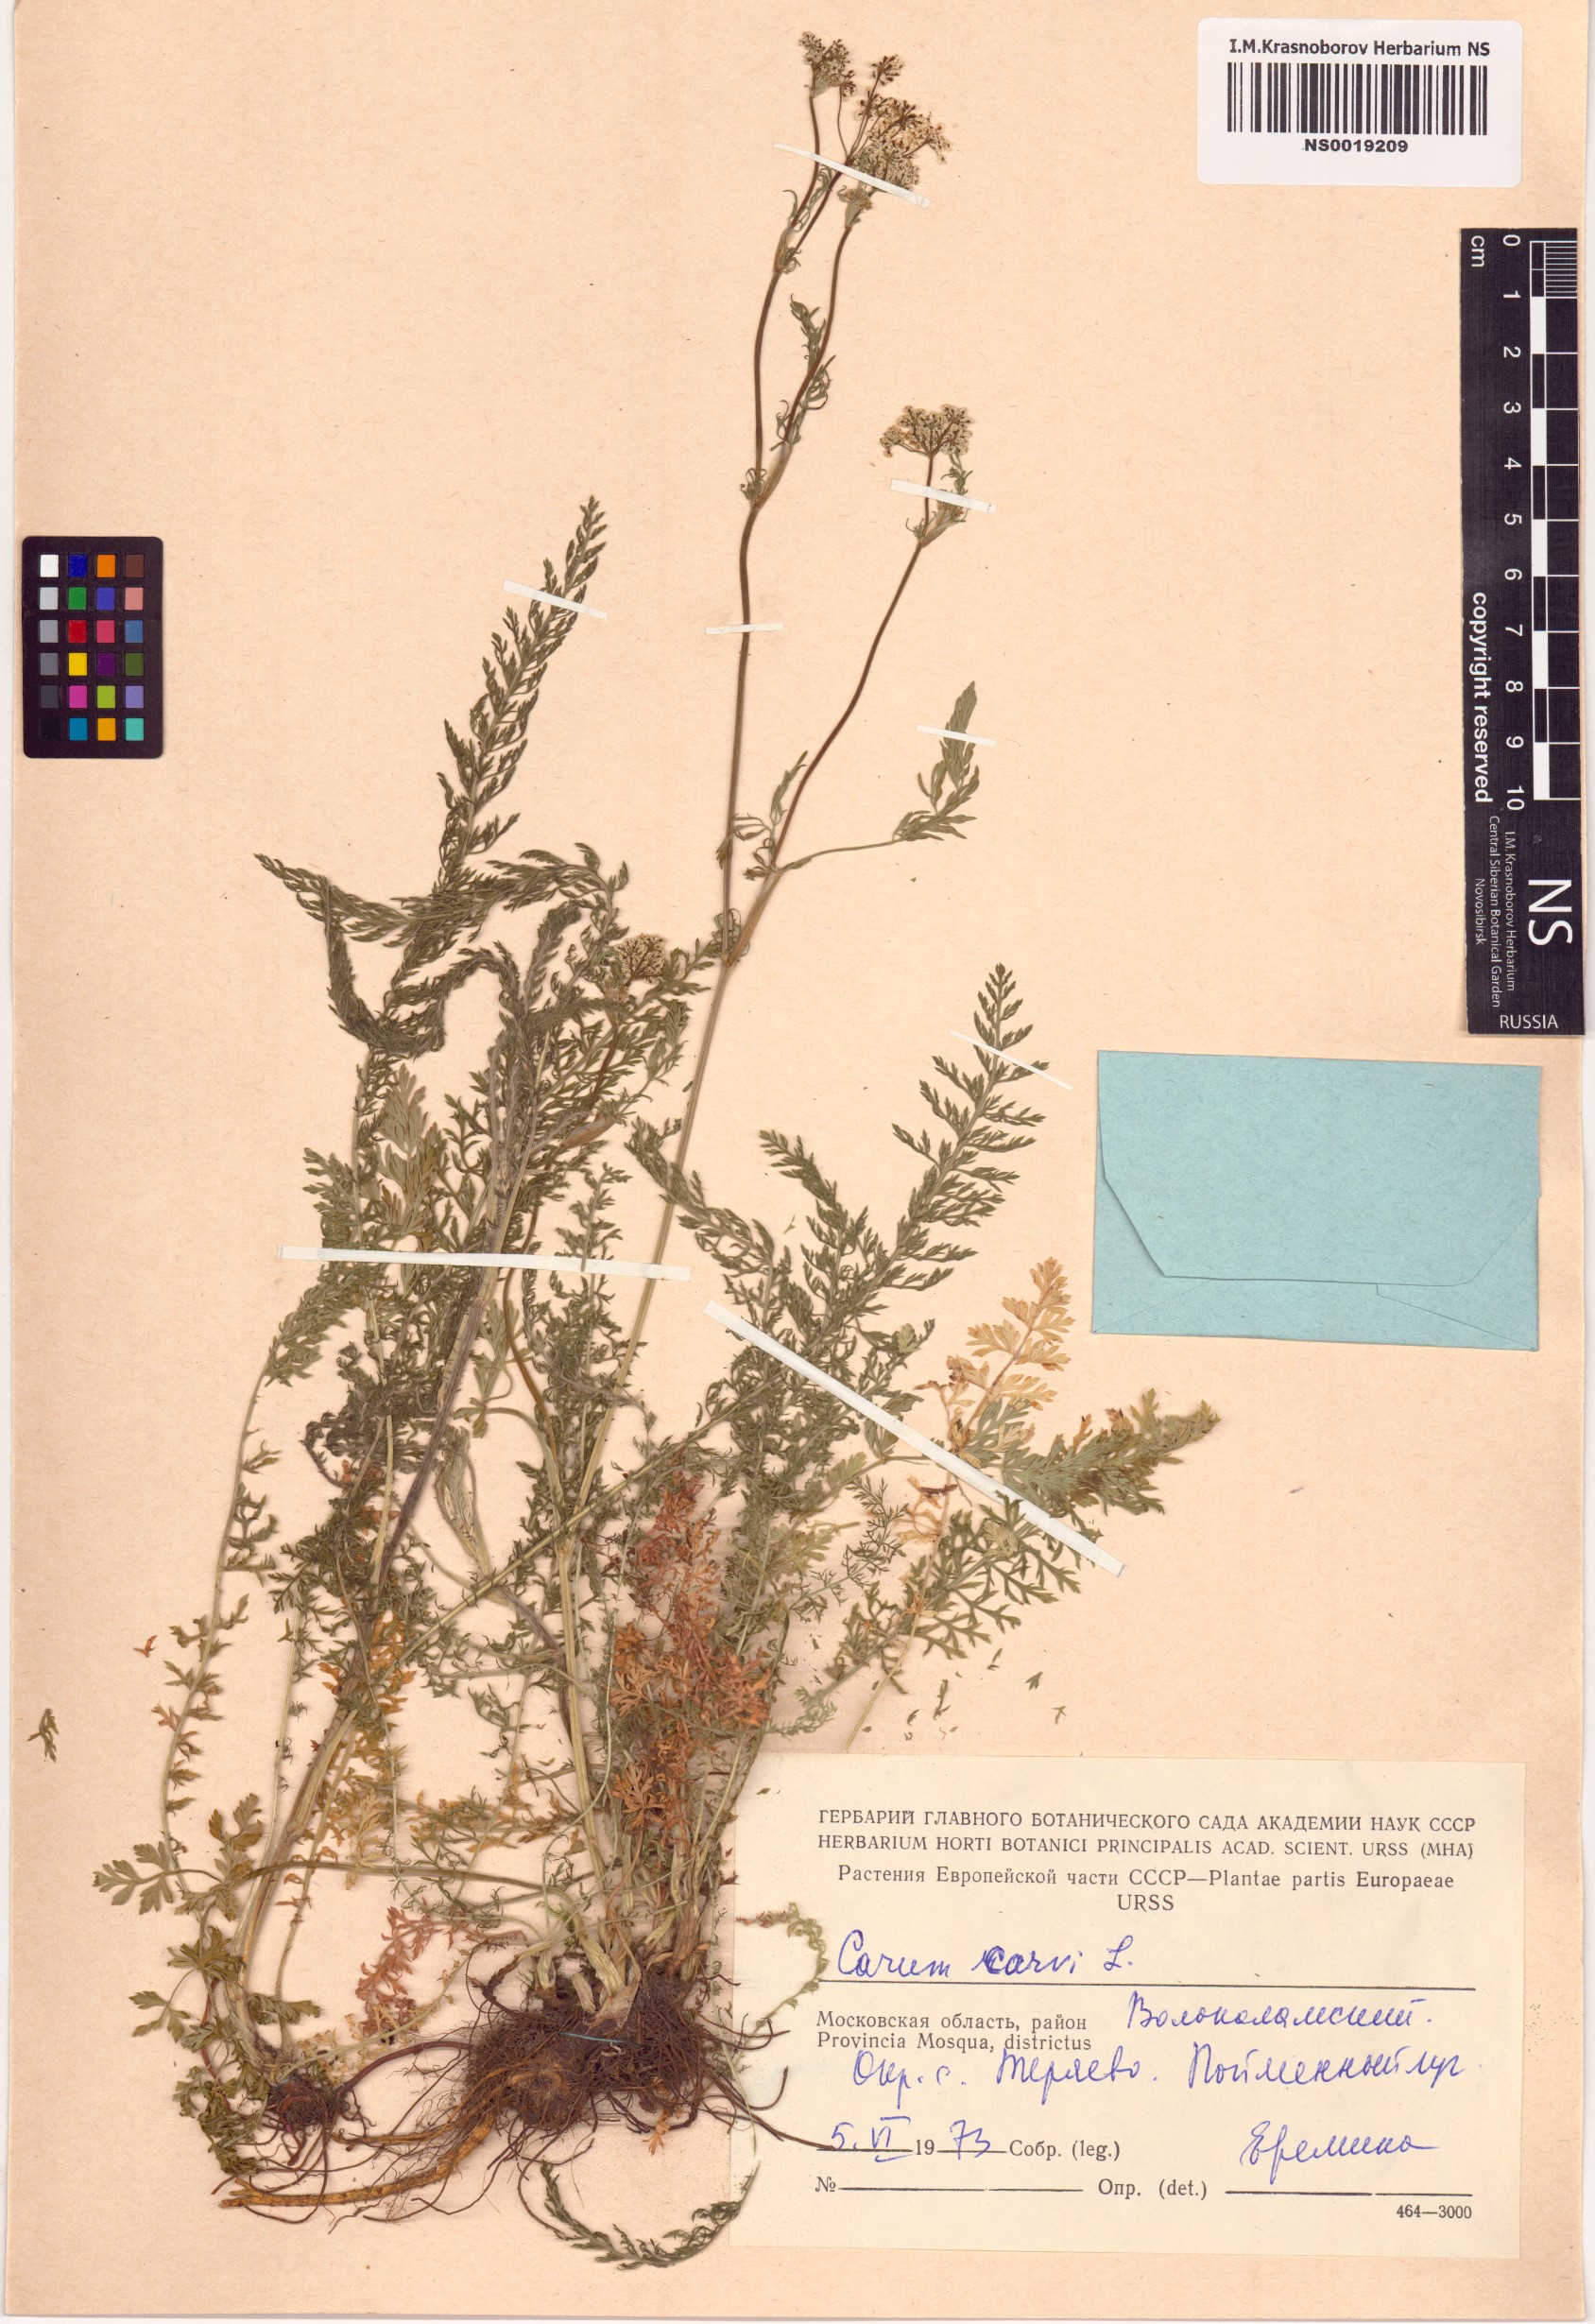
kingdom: Plantae
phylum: Tracheophyta
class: Magnoliopsida
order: Apiales
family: Apiaceae
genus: Carum
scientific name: Carum carvi
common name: Caraway
